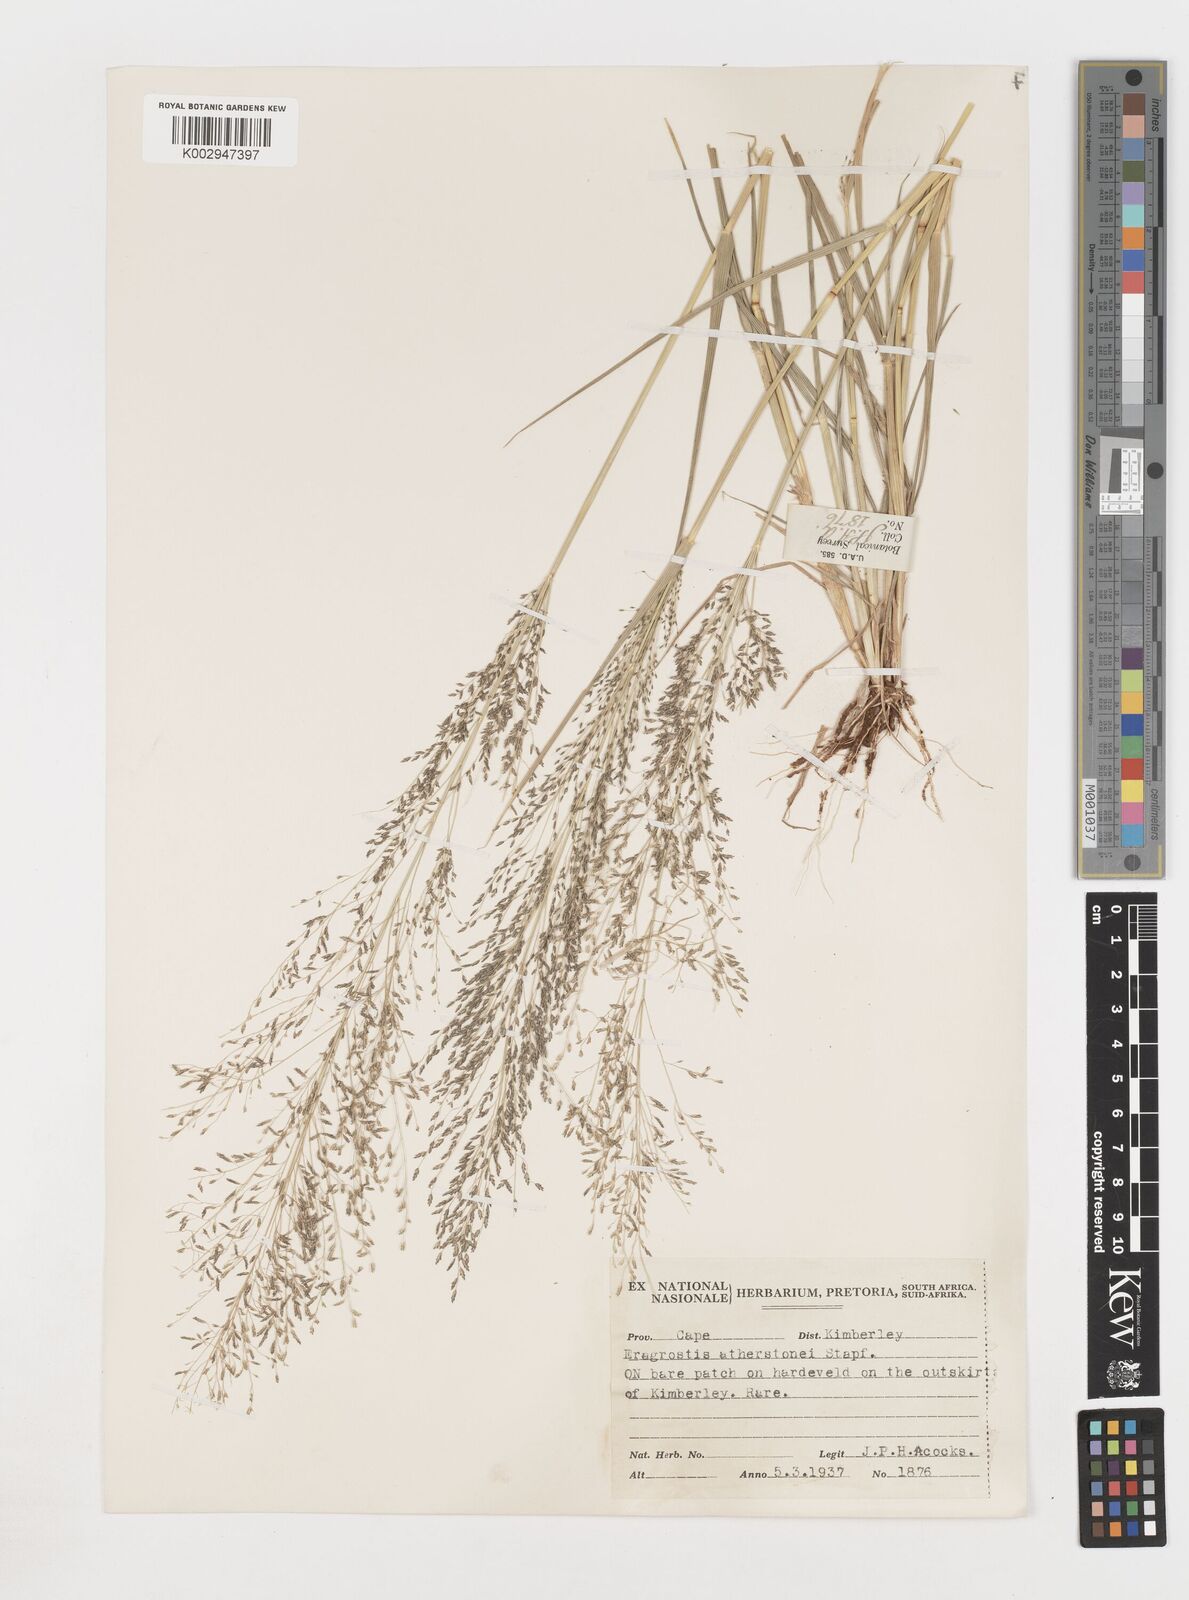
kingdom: Plantae
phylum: Tracheophyta
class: Liliopsida
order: Poales
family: Poaceae
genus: Eragrostis
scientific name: Eragrostis
